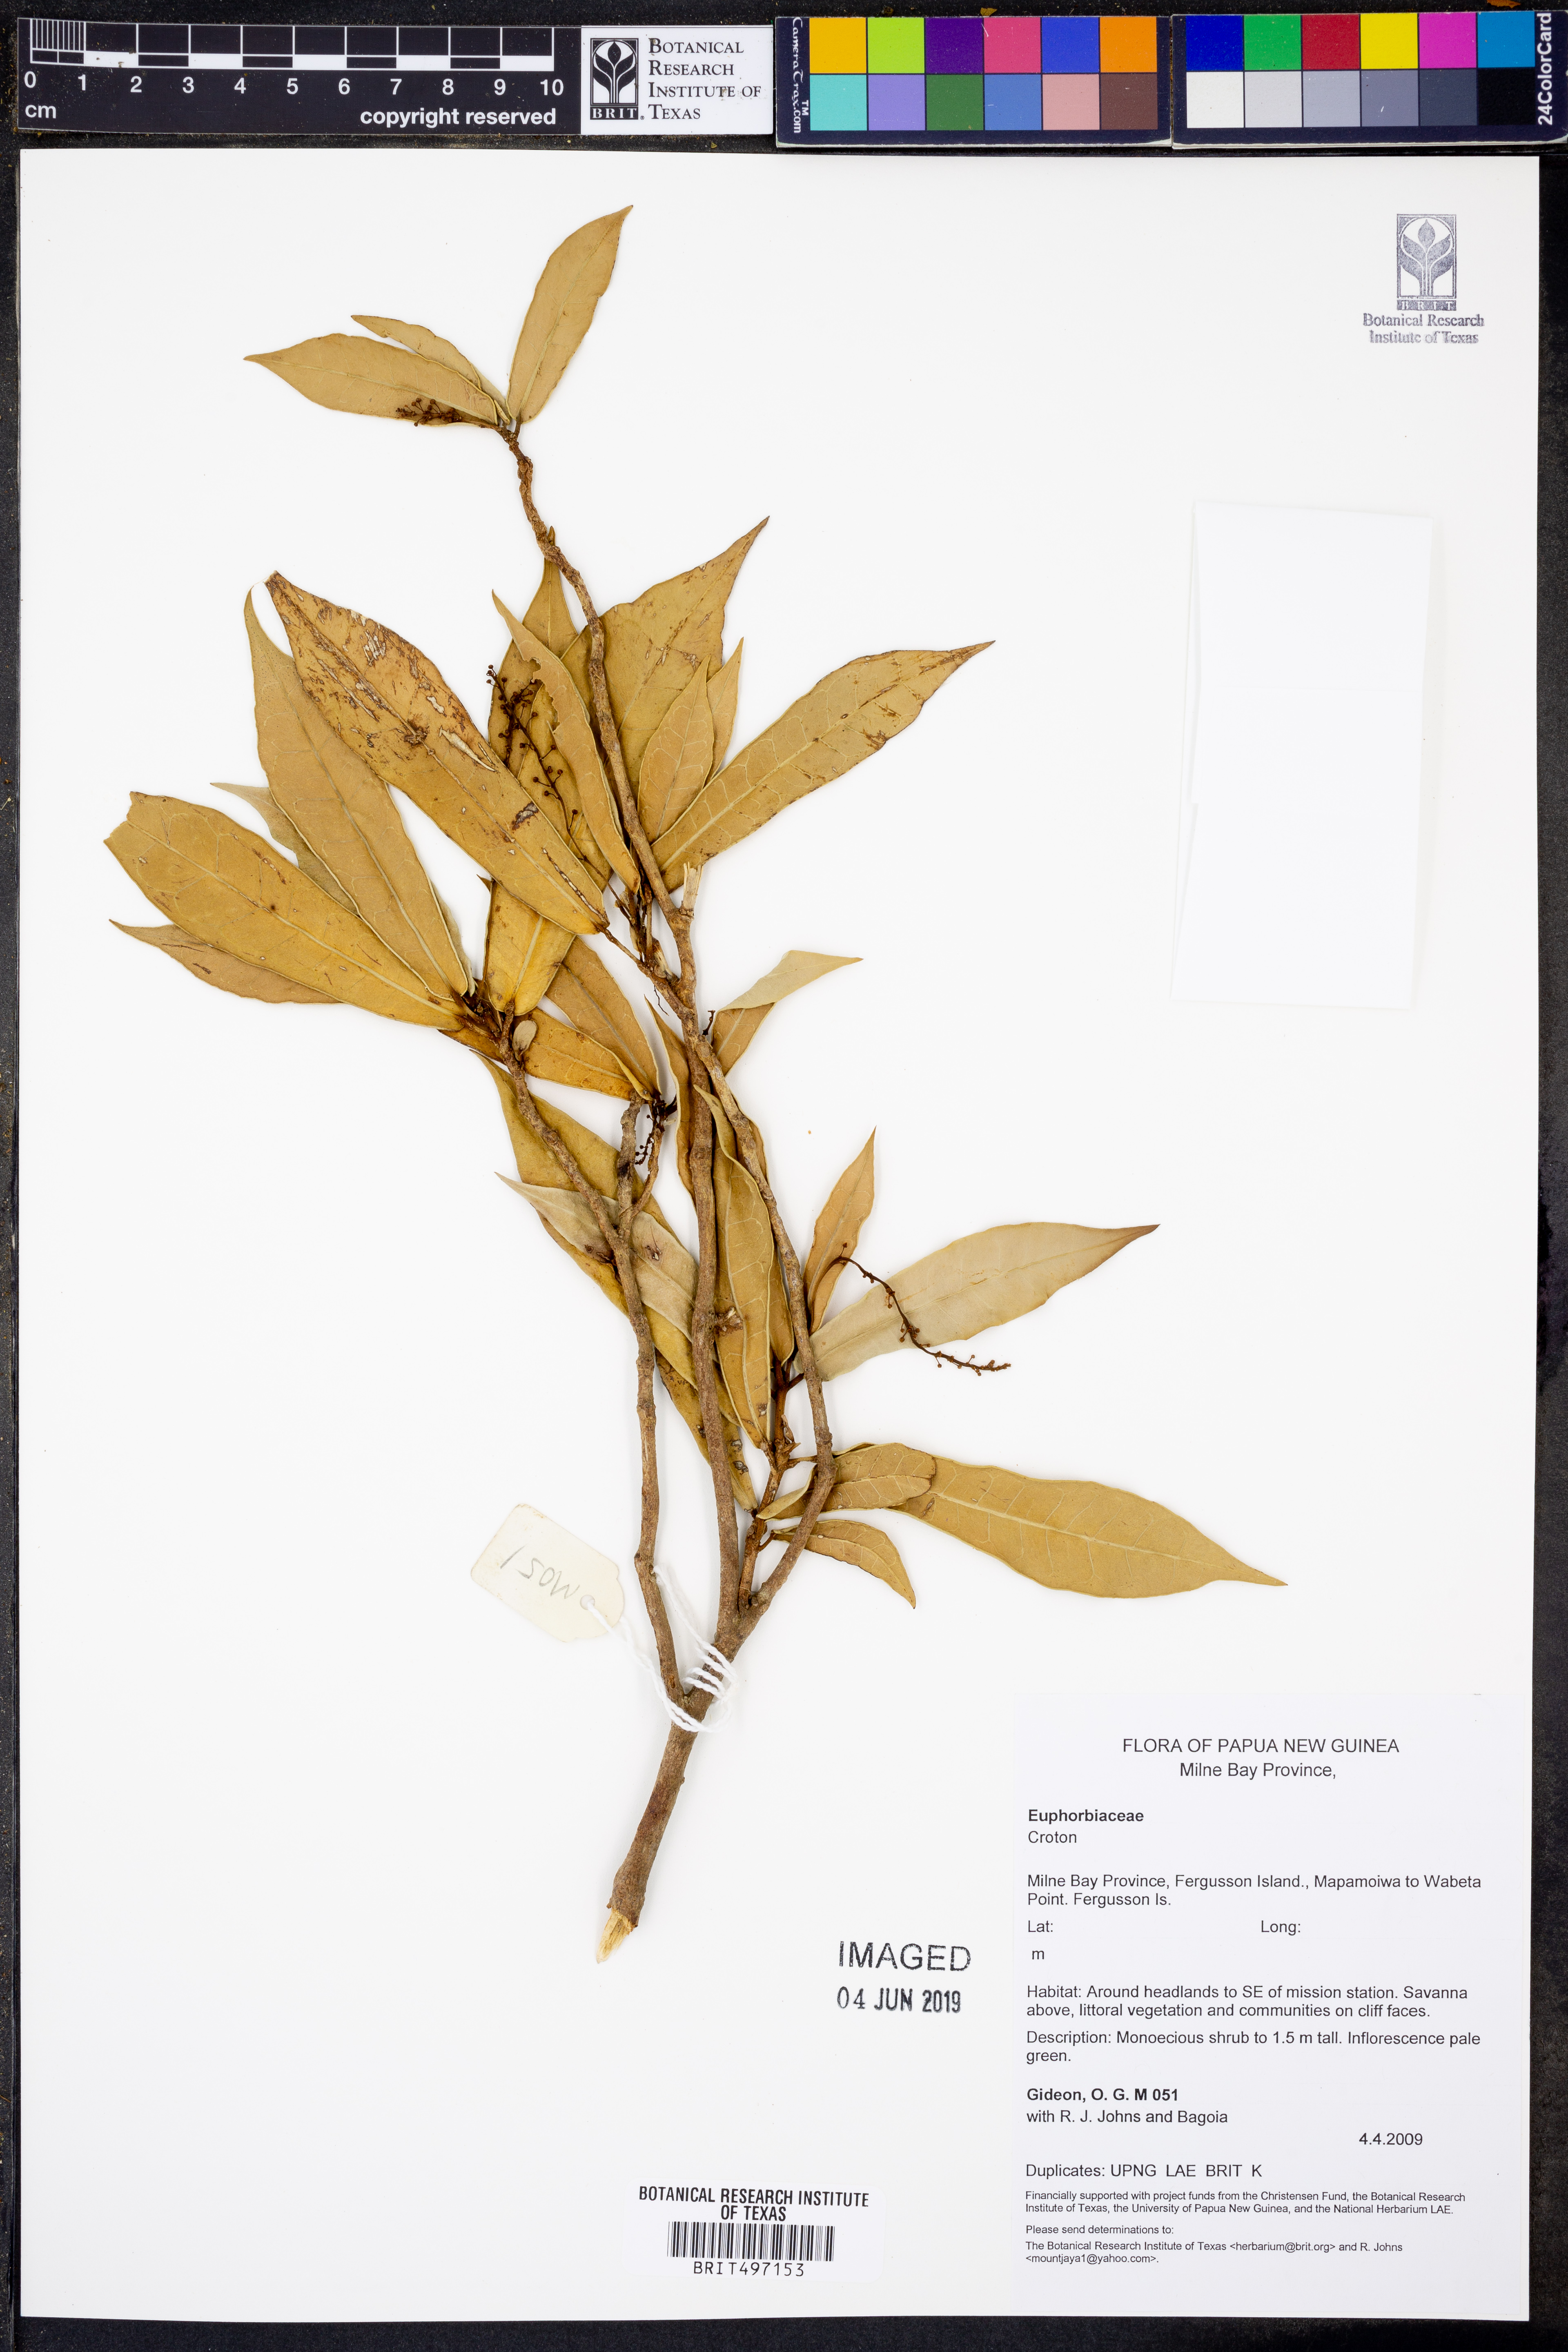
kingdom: Plantae
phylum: Tracheophyta
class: Magnoliopsida
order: Malpighiales
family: Euphorbiaceae
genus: Croton
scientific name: Croton
